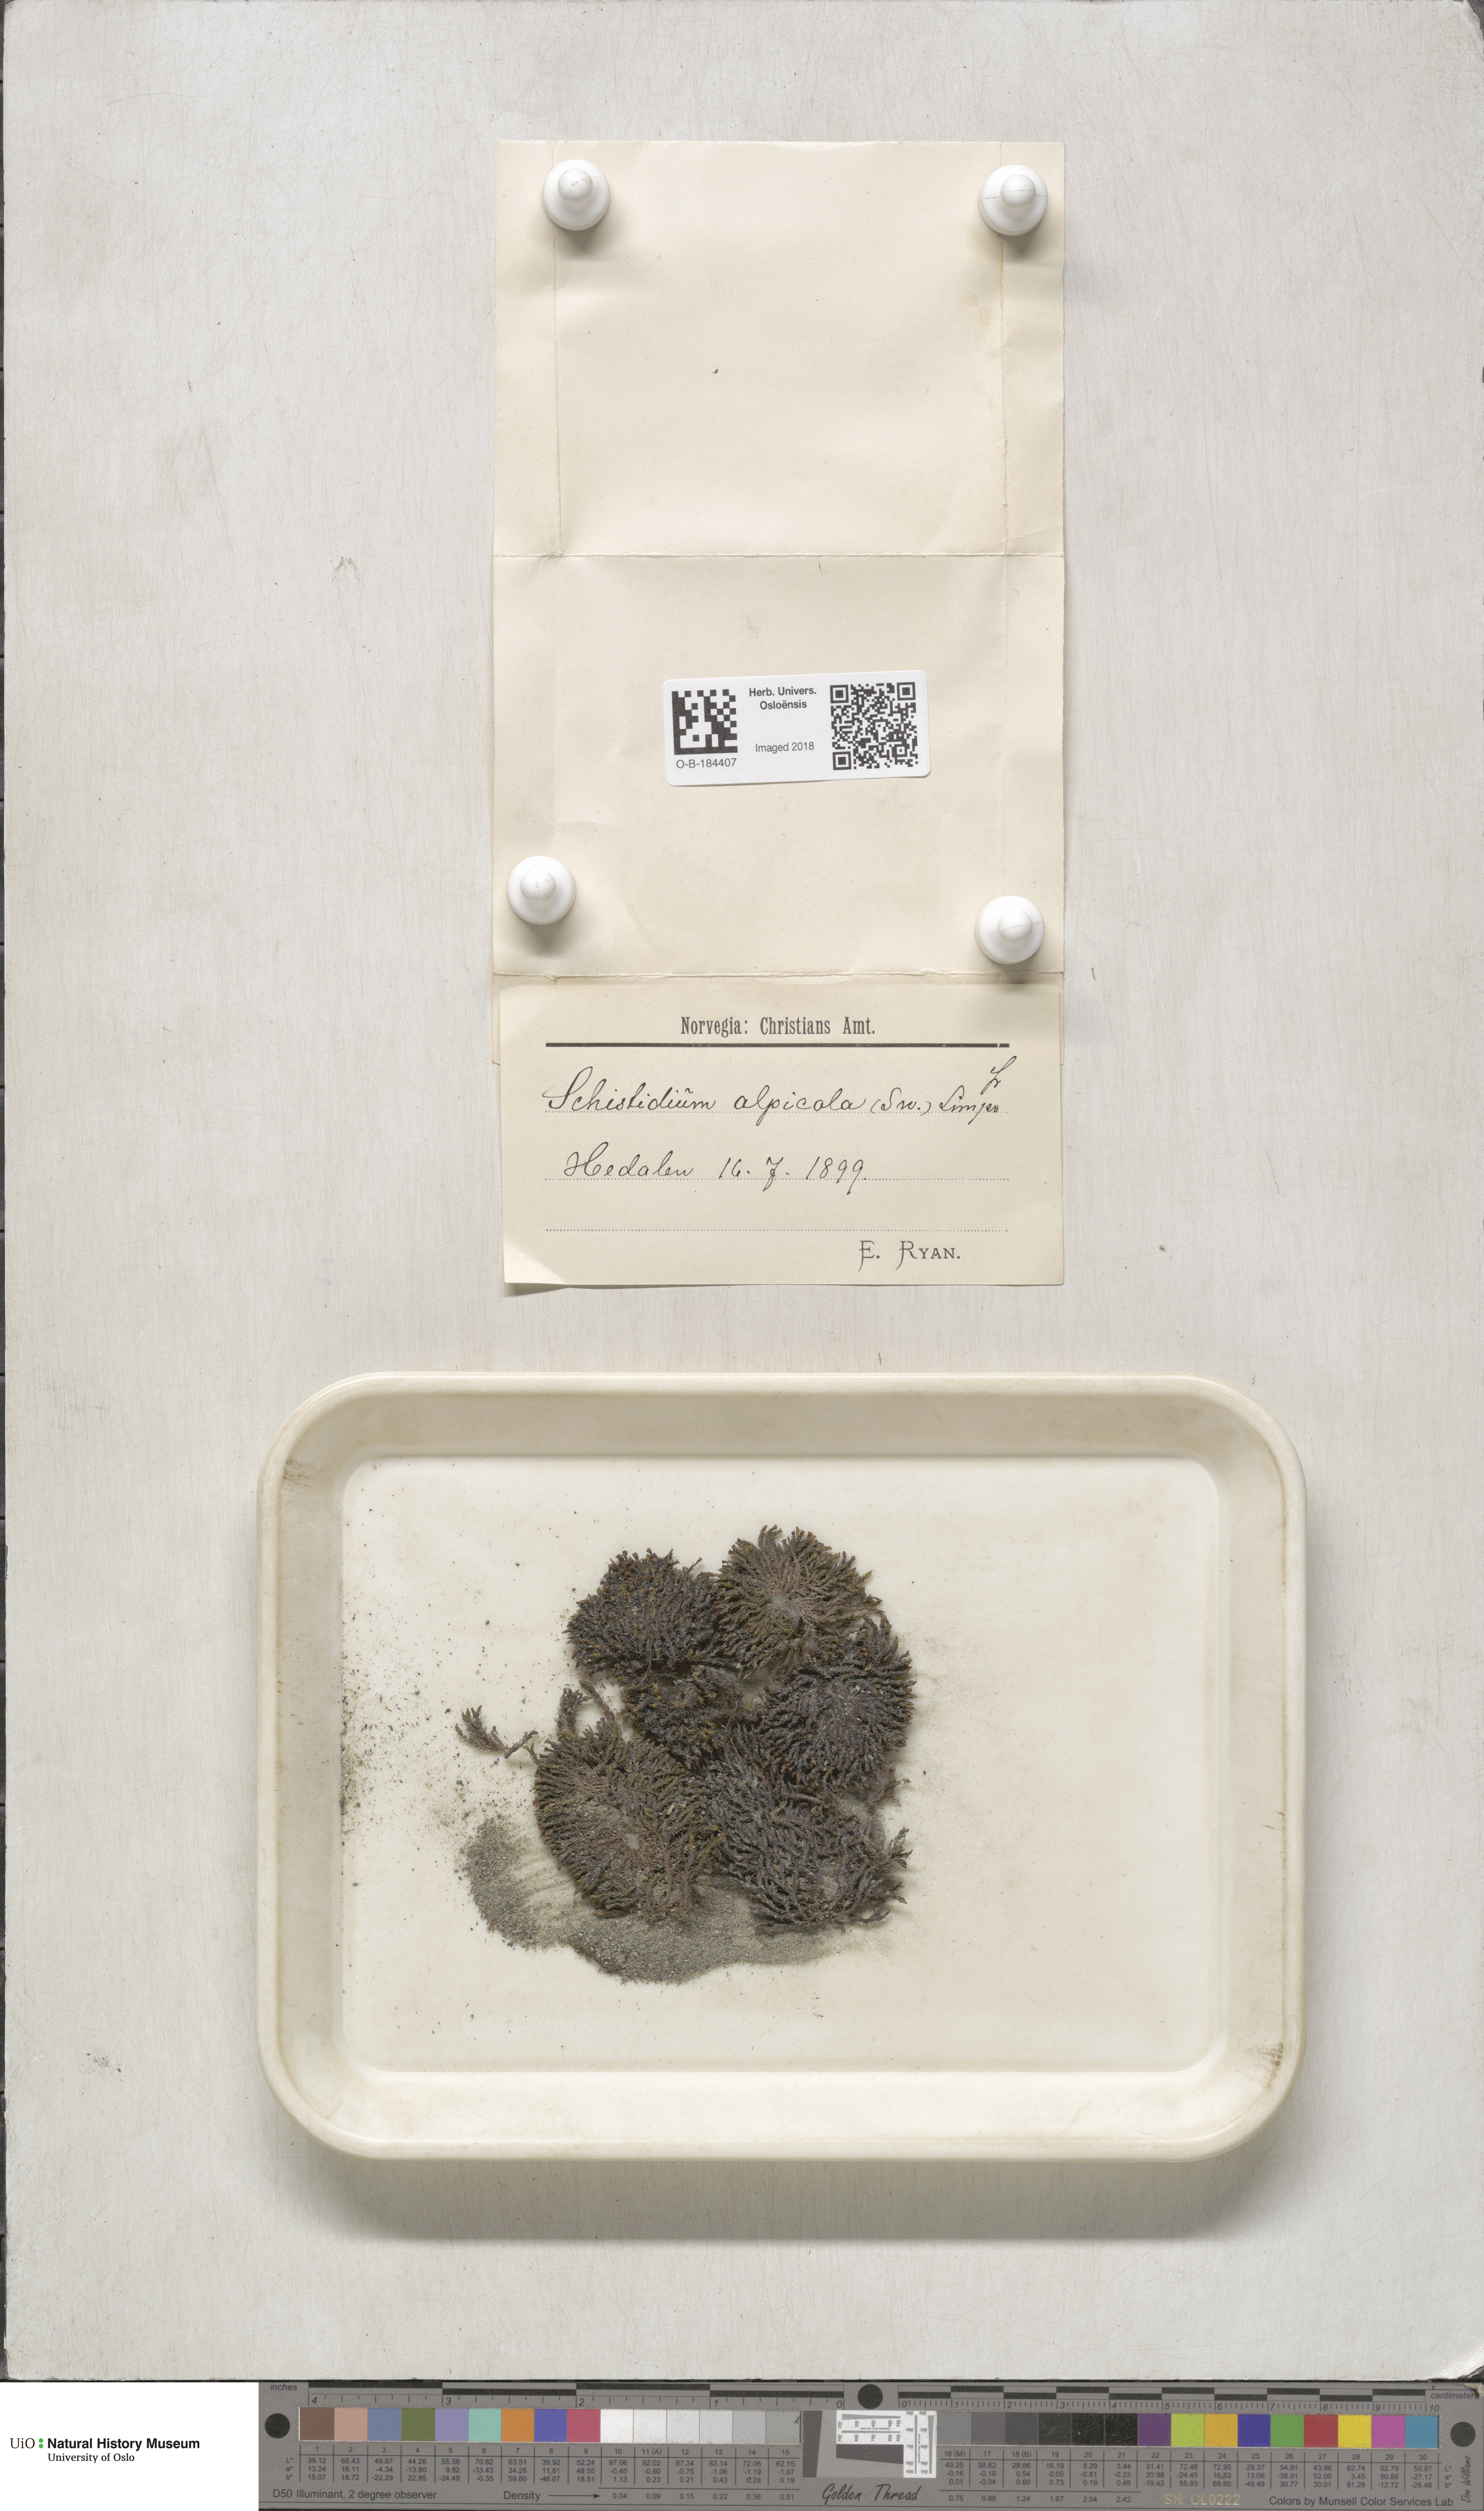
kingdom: Plantae
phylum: Bryophyta
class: Bryopsida
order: Grimmiales
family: Grimmiaceae
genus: Schistidium
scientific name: Schistidium rivulare
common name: River bloom moss
